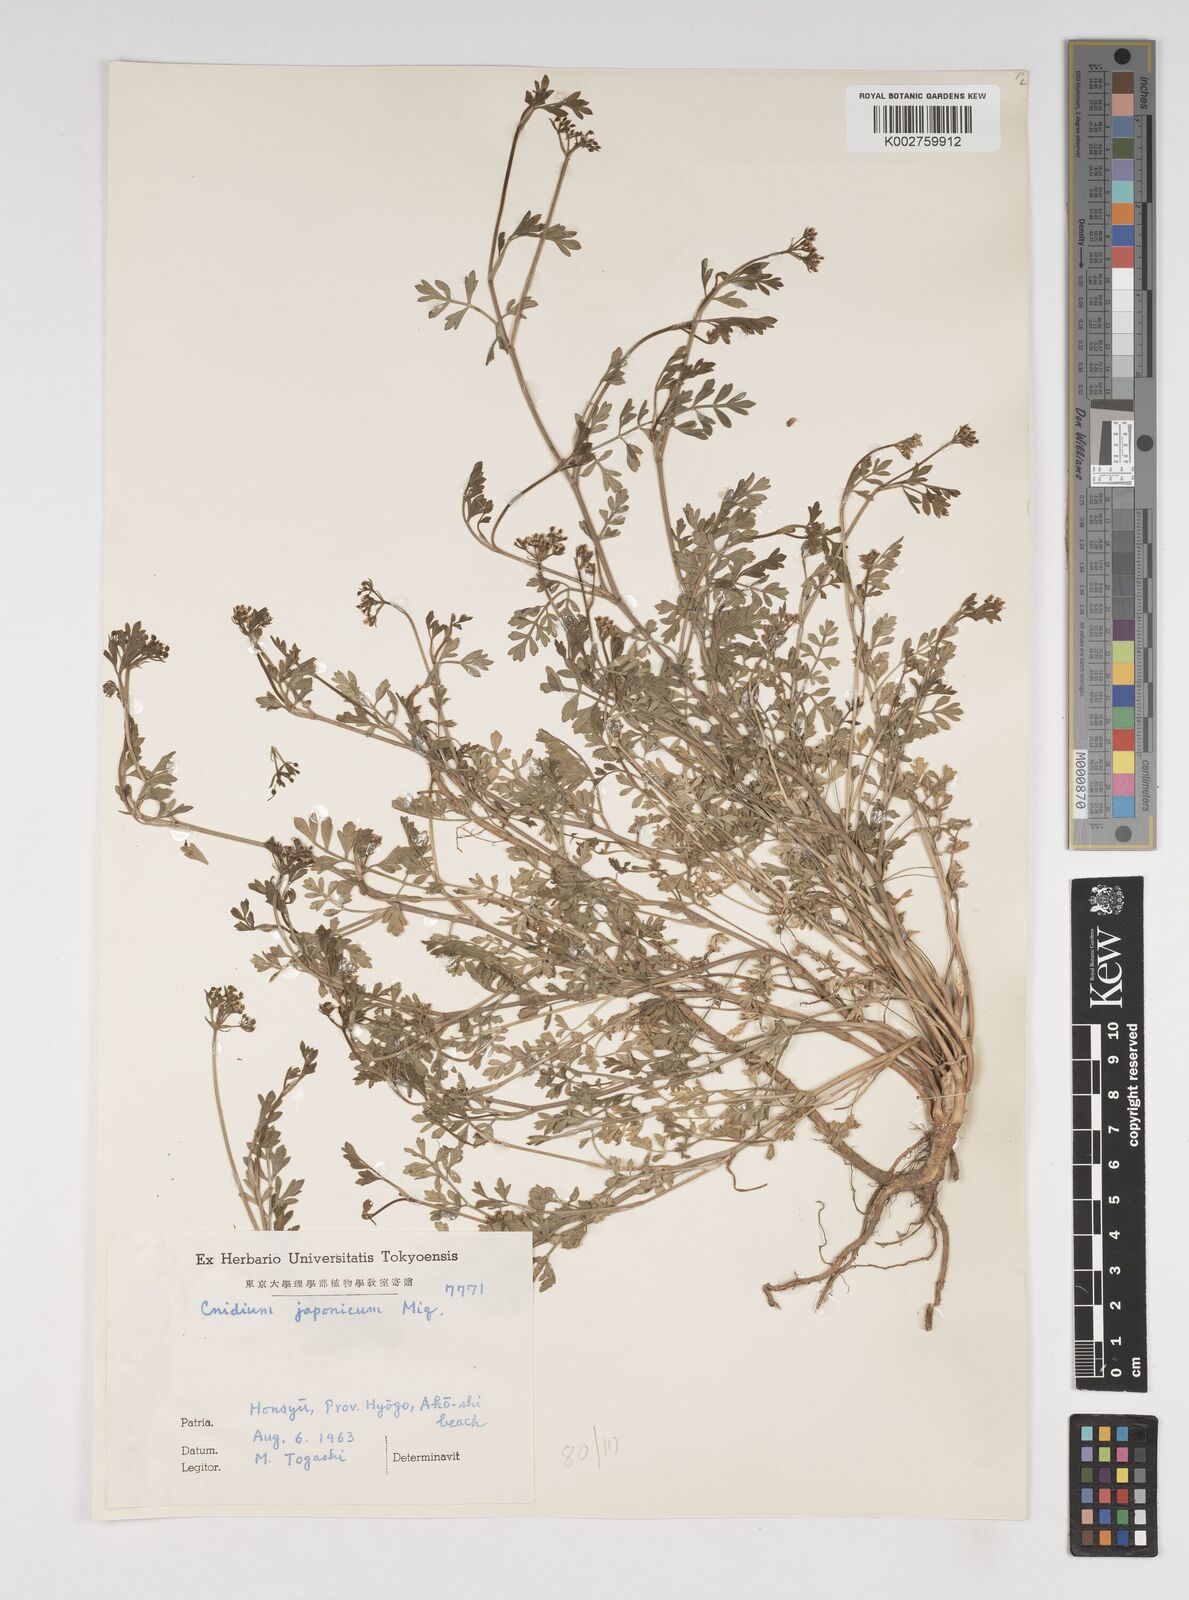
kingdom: Plantae
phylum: Tracheophyta
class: Magnoliopsida
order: Apiales
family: Apiaceae
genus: Cnidium
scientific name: Cnidium japonicum
